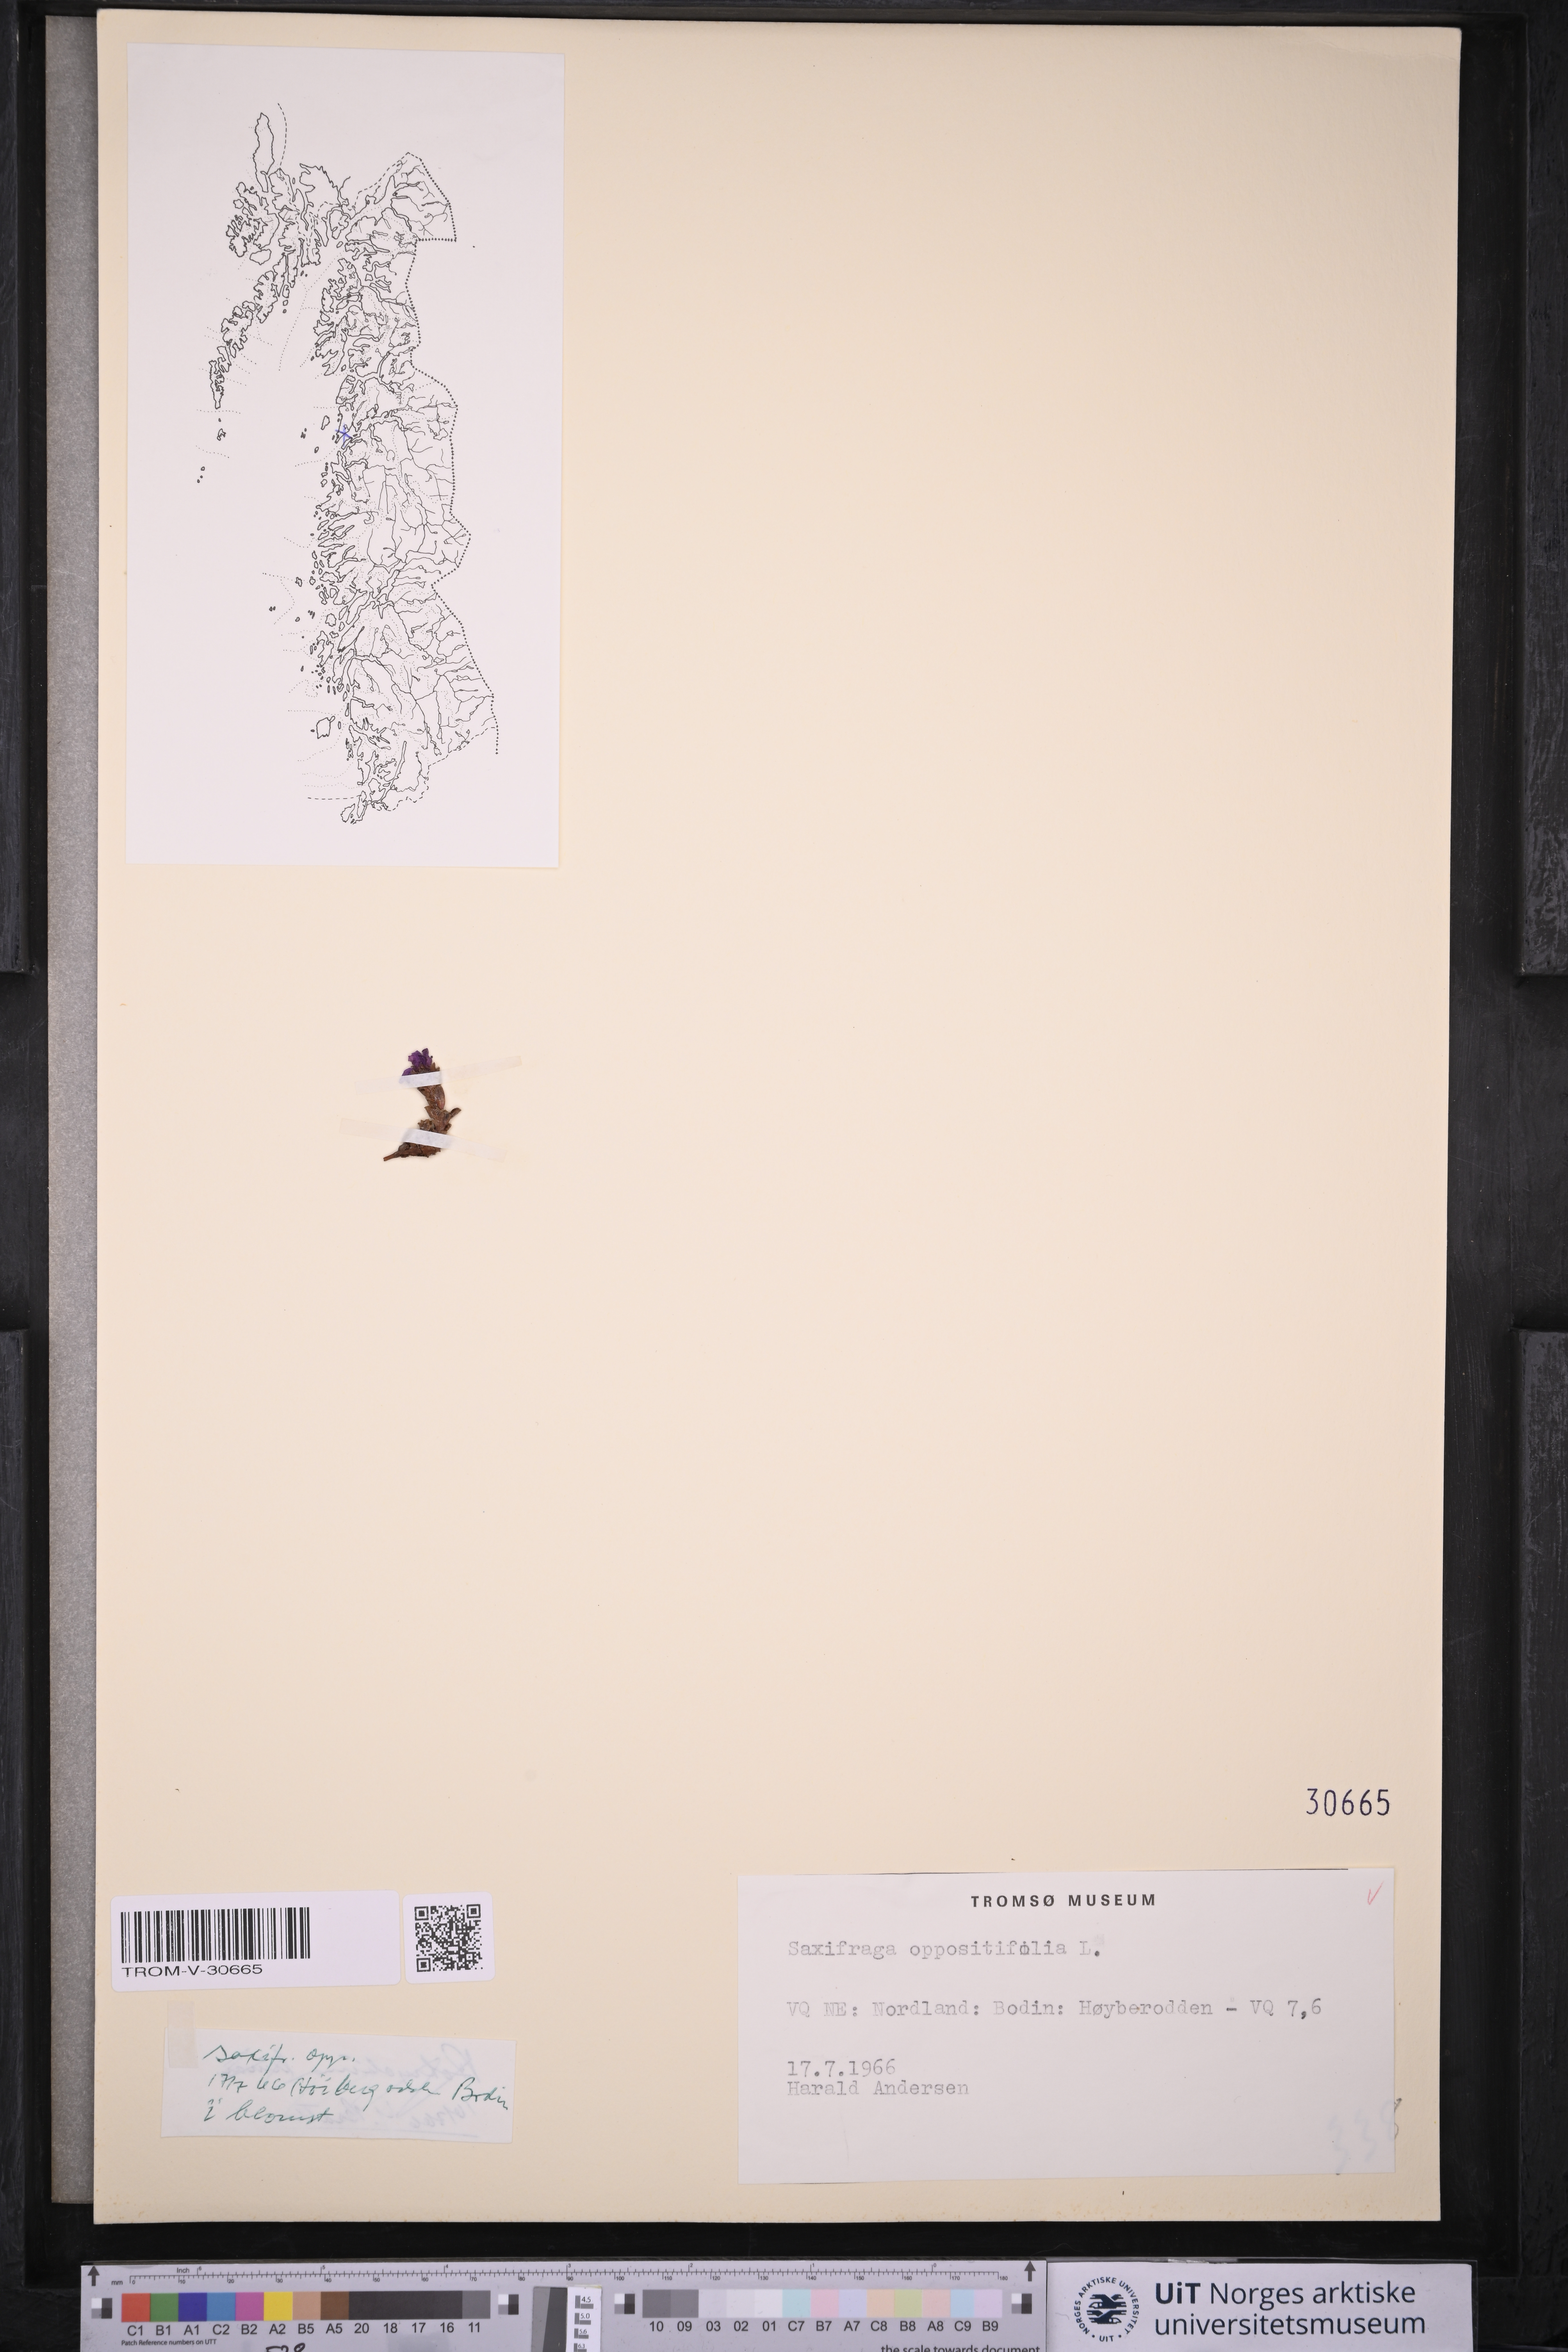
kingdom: Plantae
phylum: Tracheophyta
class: Magnoliopsida
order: Saxifragales
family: Saxifragaceae
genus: Saxifraga
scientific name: Saxifraga oppositifolia
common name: Purple saxifrage
